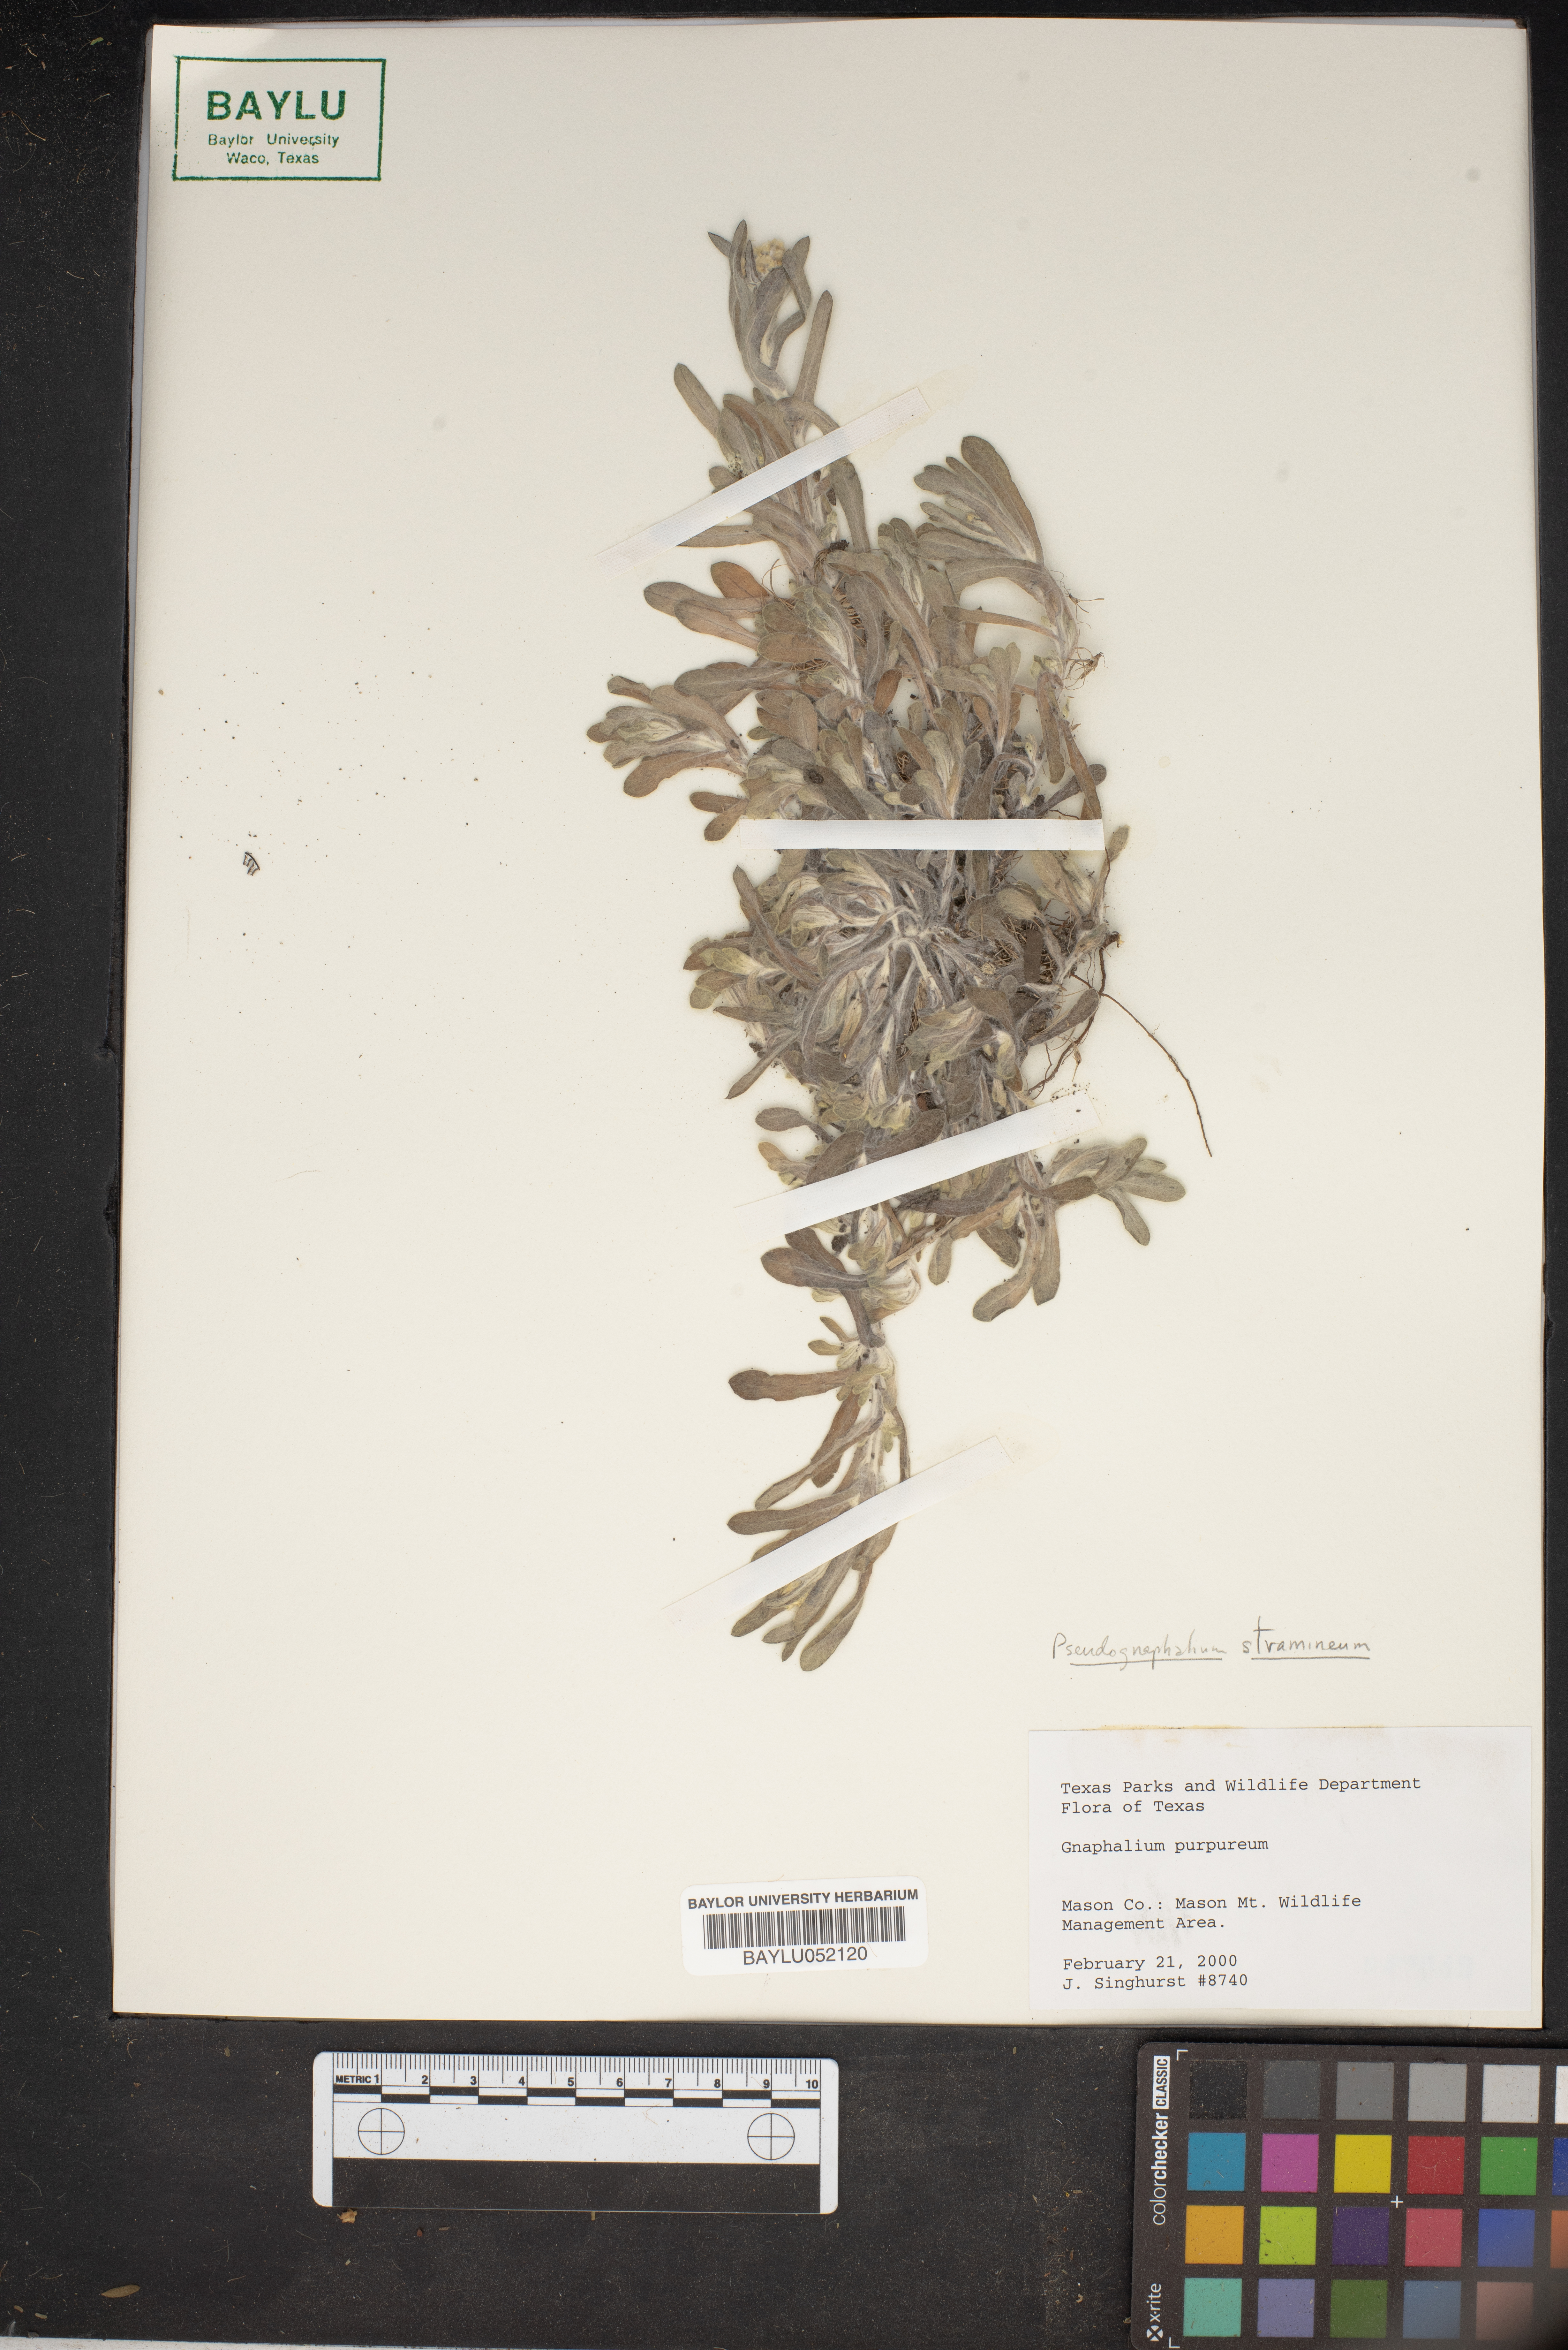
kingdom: Plantae
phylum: Tracheophyta
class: Magnoliopsida
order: Asterales
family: Asteraceae
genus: Gamochaeta
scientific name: Gamochaeta purpurea
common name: Purple cudweed
